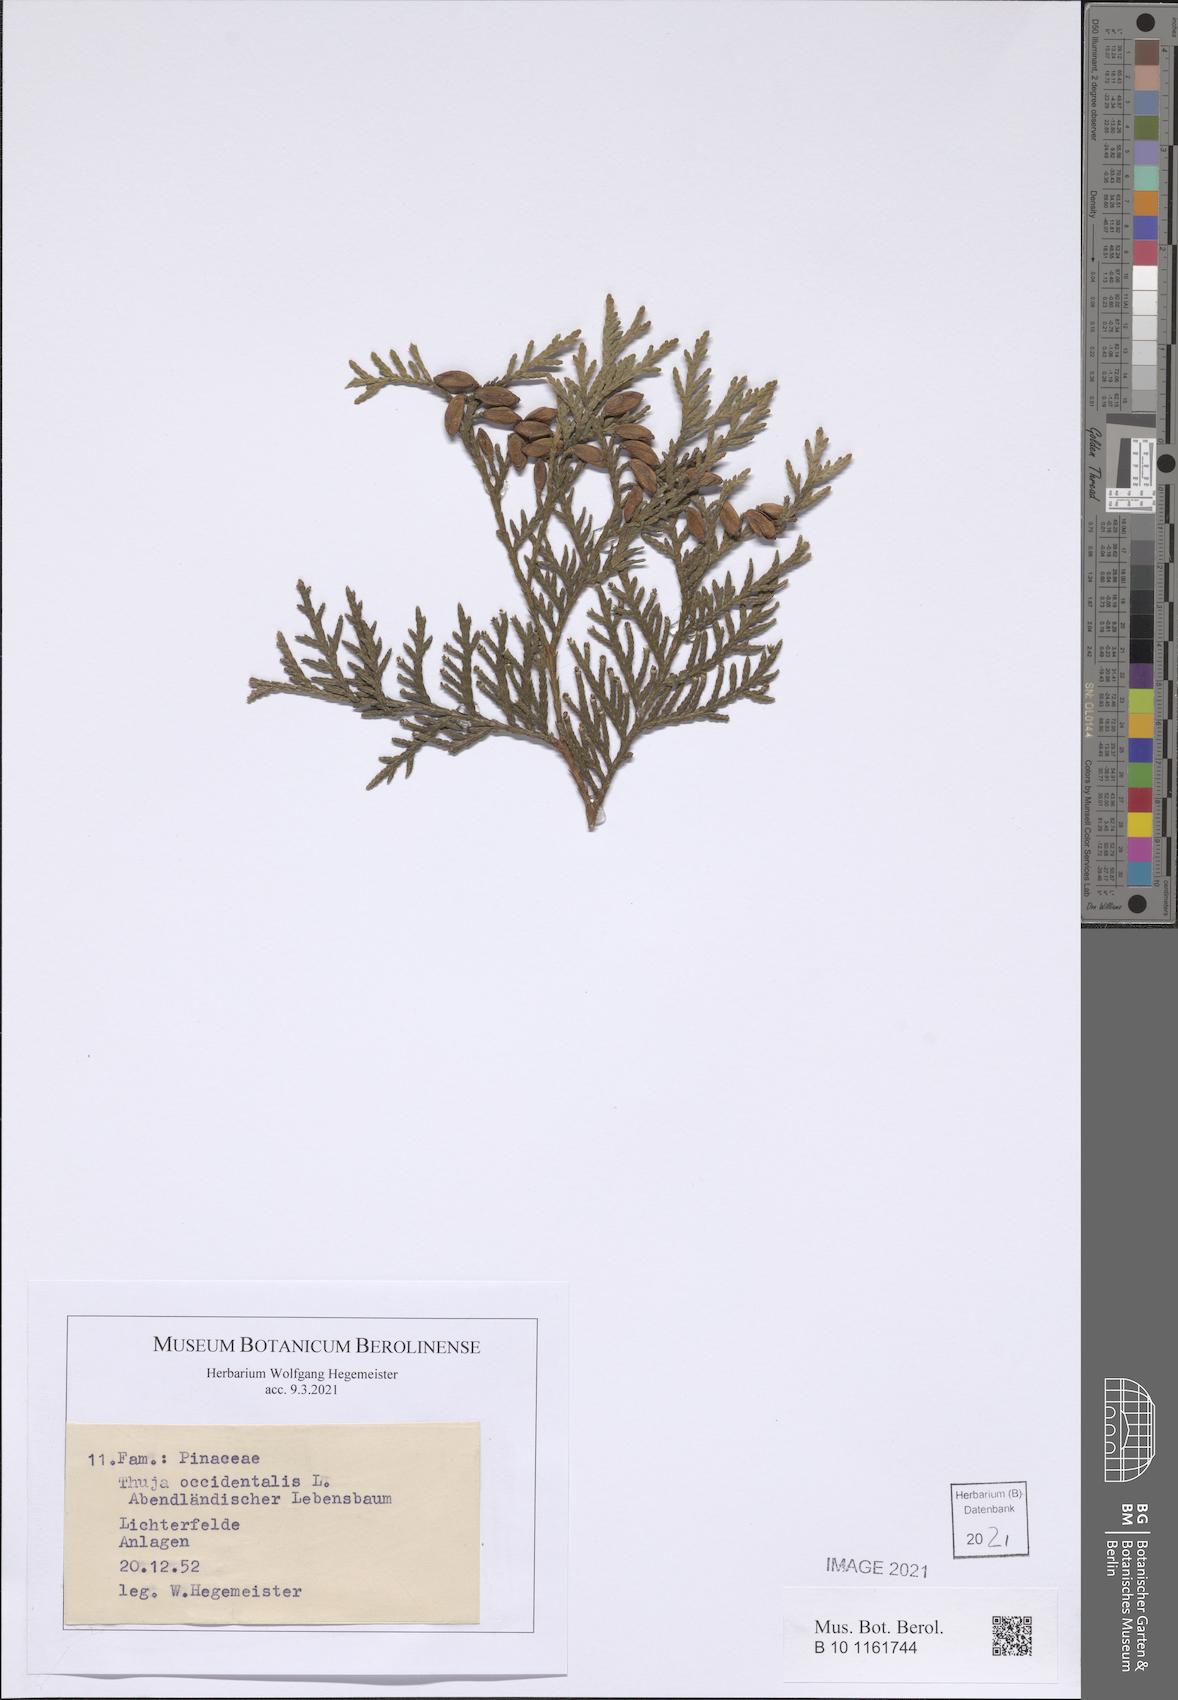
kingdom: Plantae
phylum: Tracheophyta
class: Pinopsida
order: Pinales
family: Cupressaceae
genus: Thuja
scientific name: Thuja occidentalis
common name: Northern white-cedar
